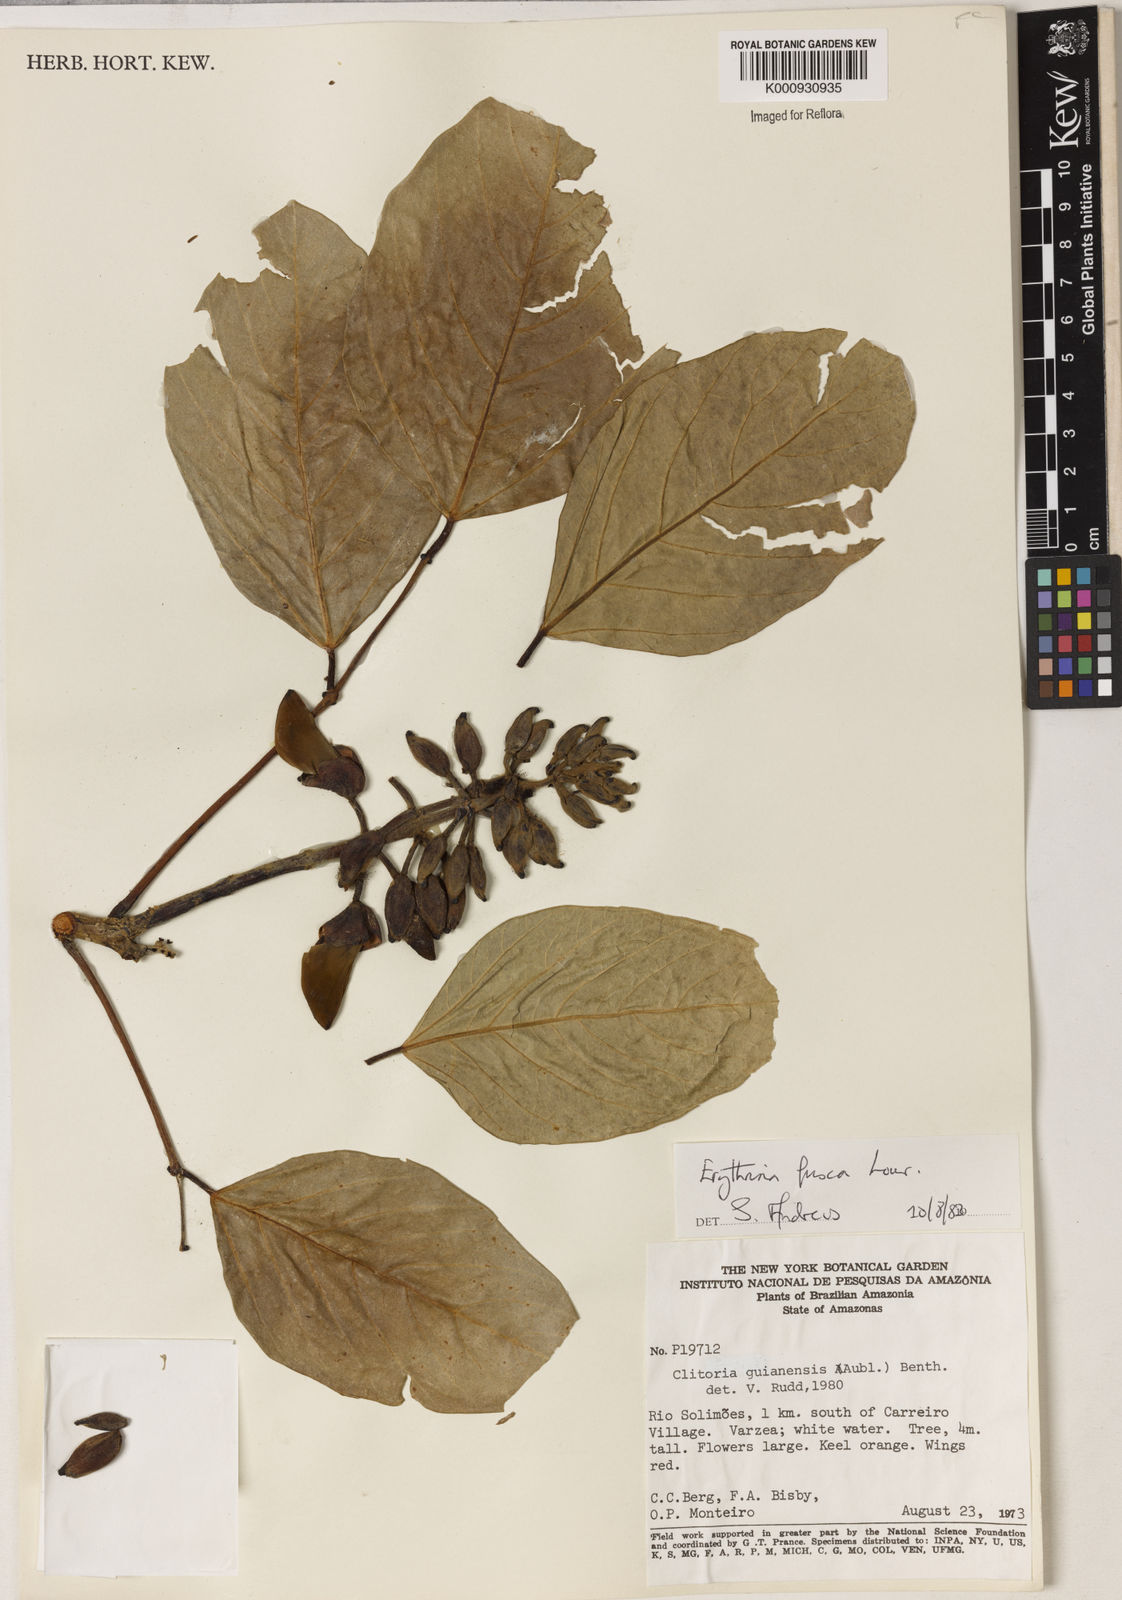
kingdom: Plantae
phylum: Tracheophyta
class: Magnoliopsida
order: Fabales
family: Fabaceae
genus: Erythrina
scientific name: Erythrina fusca
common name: Coral-bean
